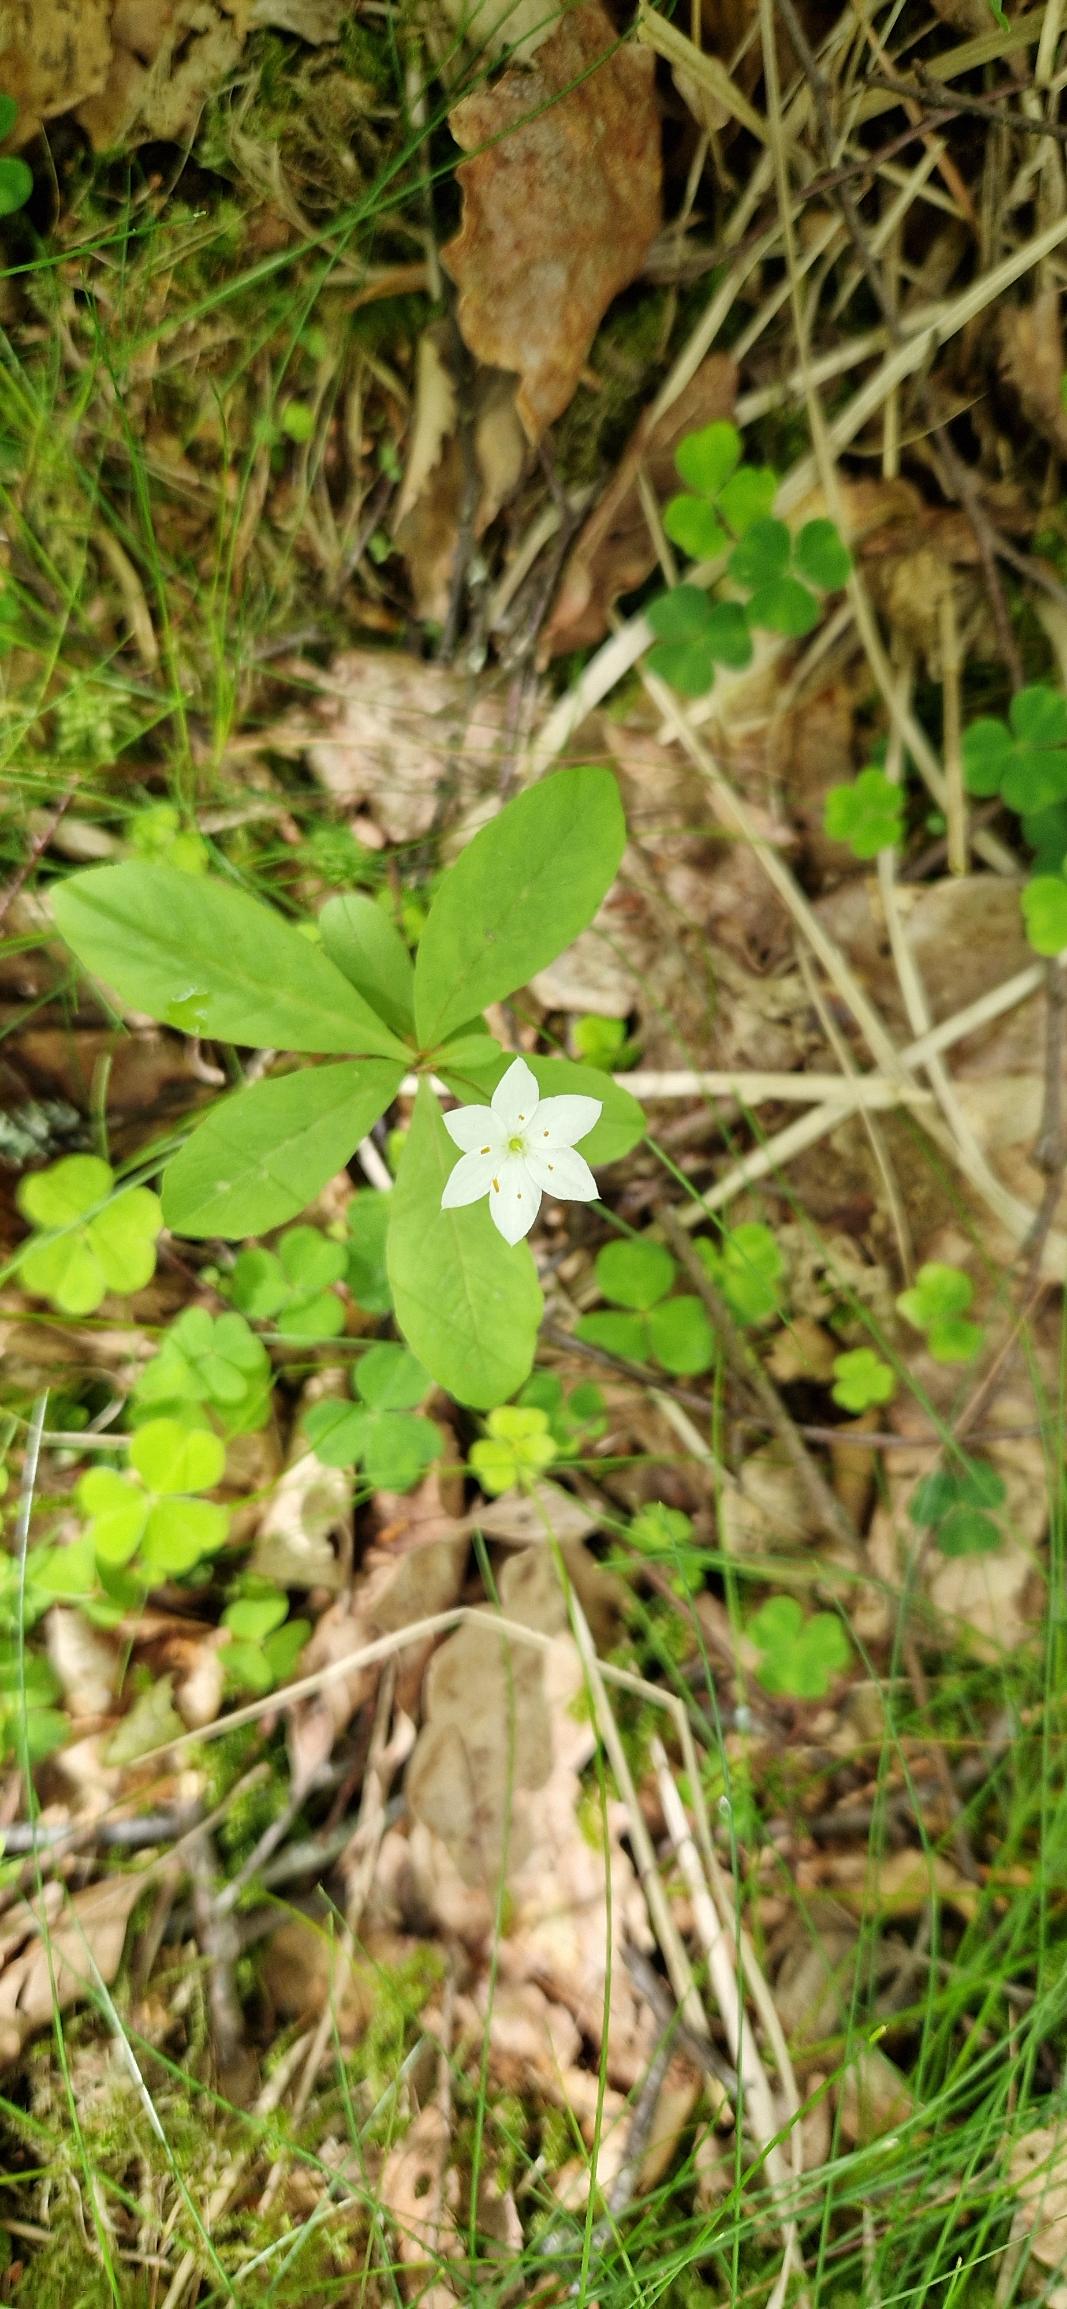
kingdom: Plantae
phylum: Tracheophyta
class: Magnoliopsida
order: Ericales
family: Primulaceae
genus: Lysimachia
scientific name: Lysimachia europaea
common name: Skovstjerne
